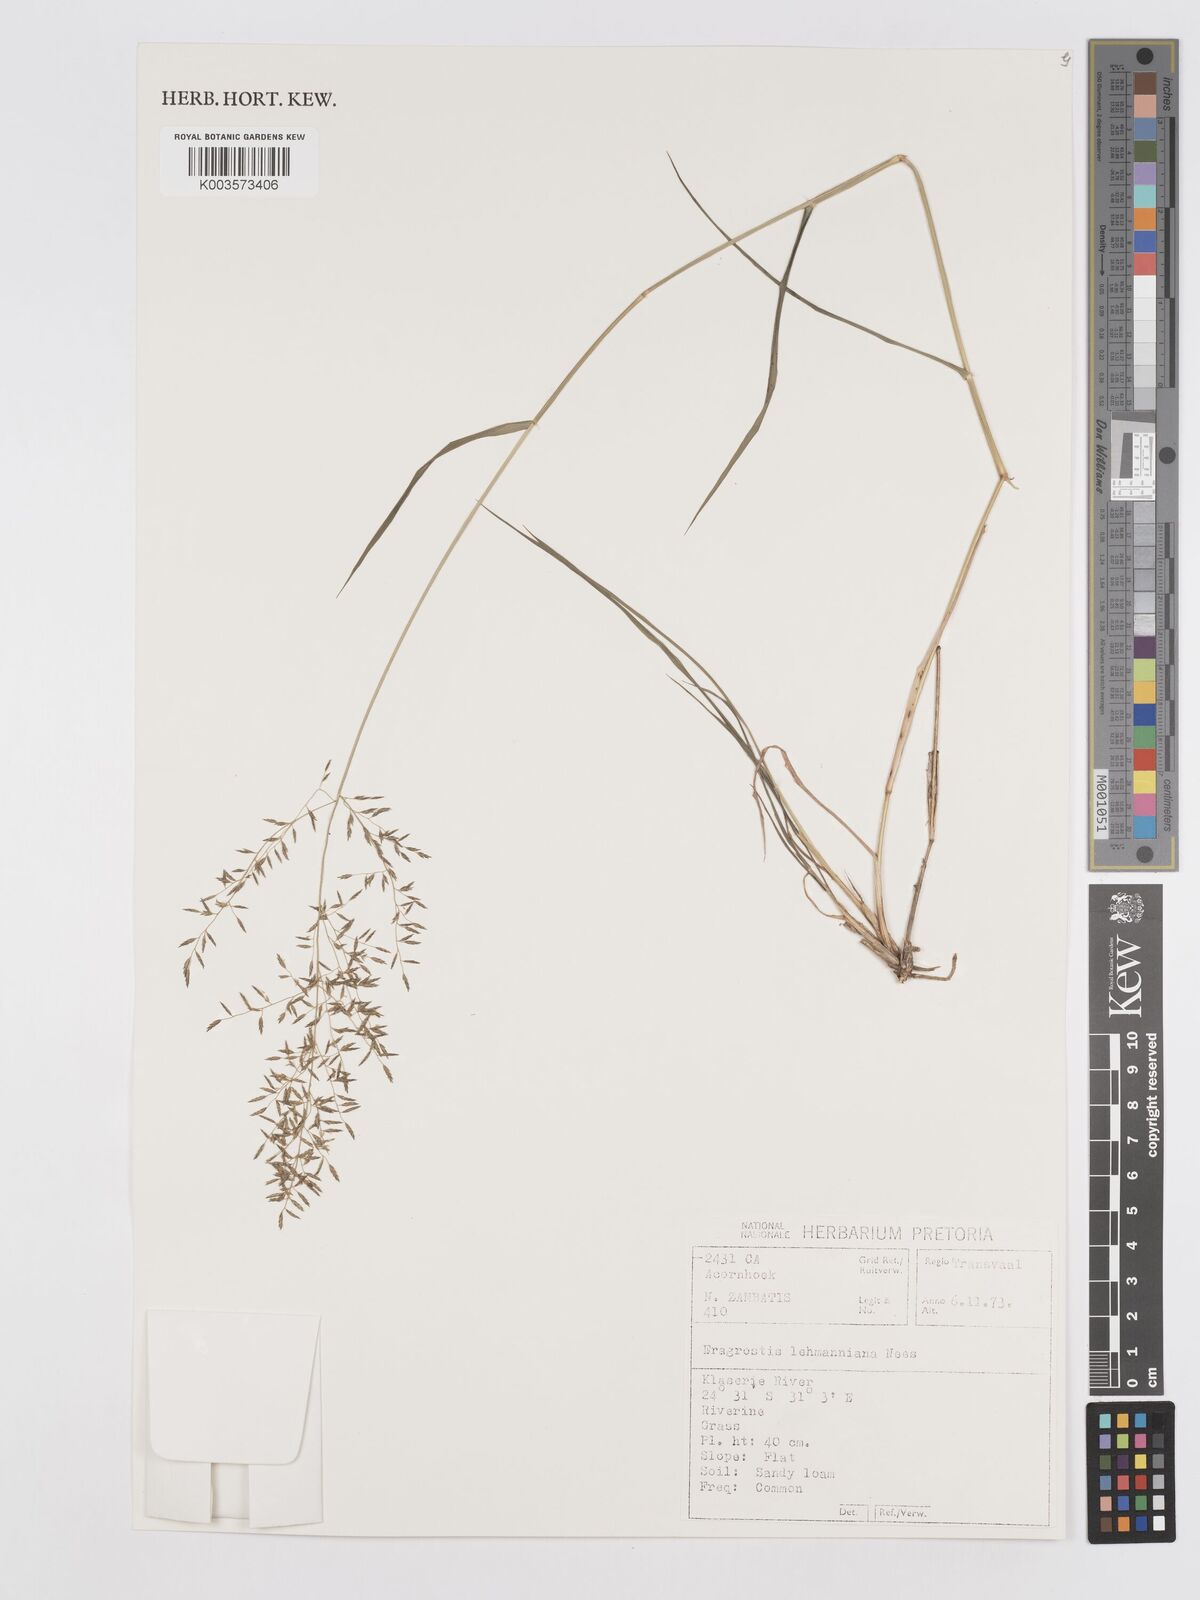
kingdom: Plantae
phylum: Tracheophyta
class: Liliopsida
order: Poales
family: Poaceae
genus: Eragrostis
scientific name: Eragrostis lehmanniana
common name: Lehmann lovegrass
